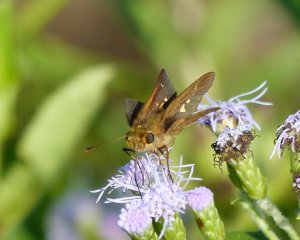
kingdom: Animalia
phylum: Arthropoda
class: Insecta
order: Lepidoptera
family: Hesperiidae
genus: Panoquina
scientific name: Panoquina ocola
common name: Ocola Skipper
